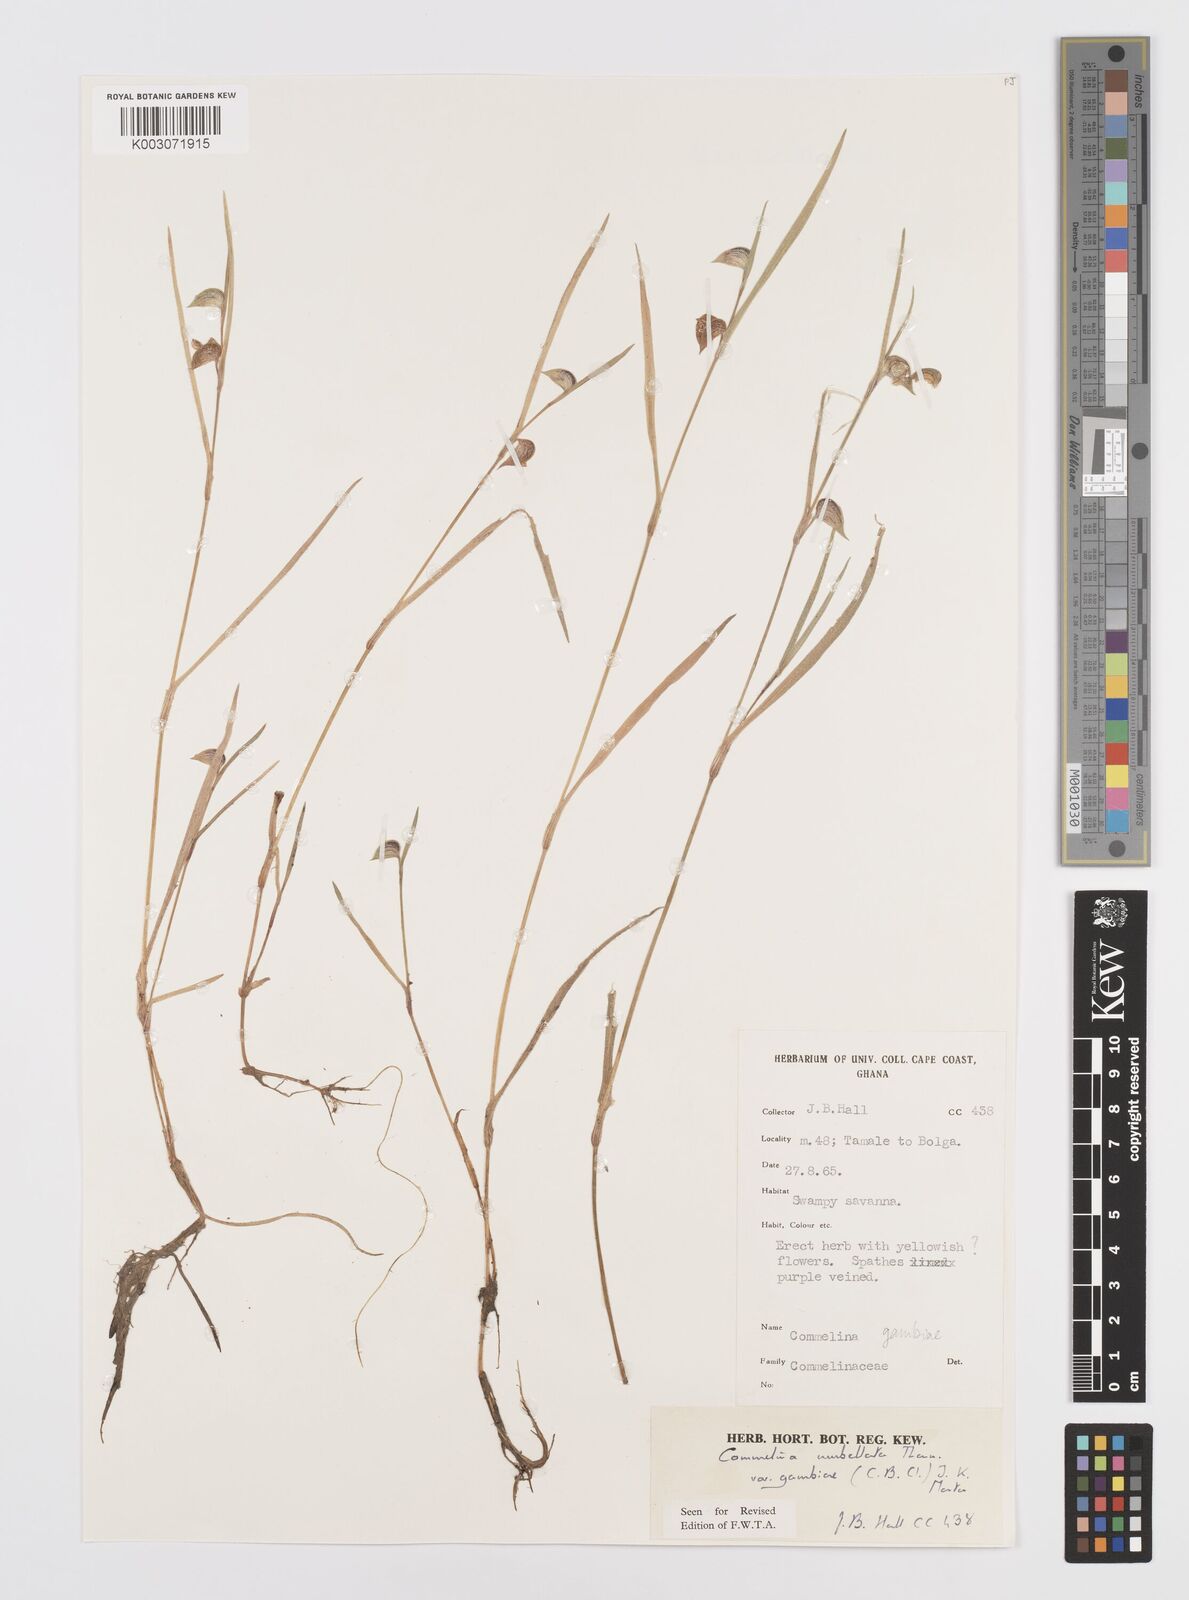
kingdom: Plantae
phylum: Tracheophyta
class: Liliopsida
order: Commelinales
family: Commelinaceae
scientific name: Commelinaceae
